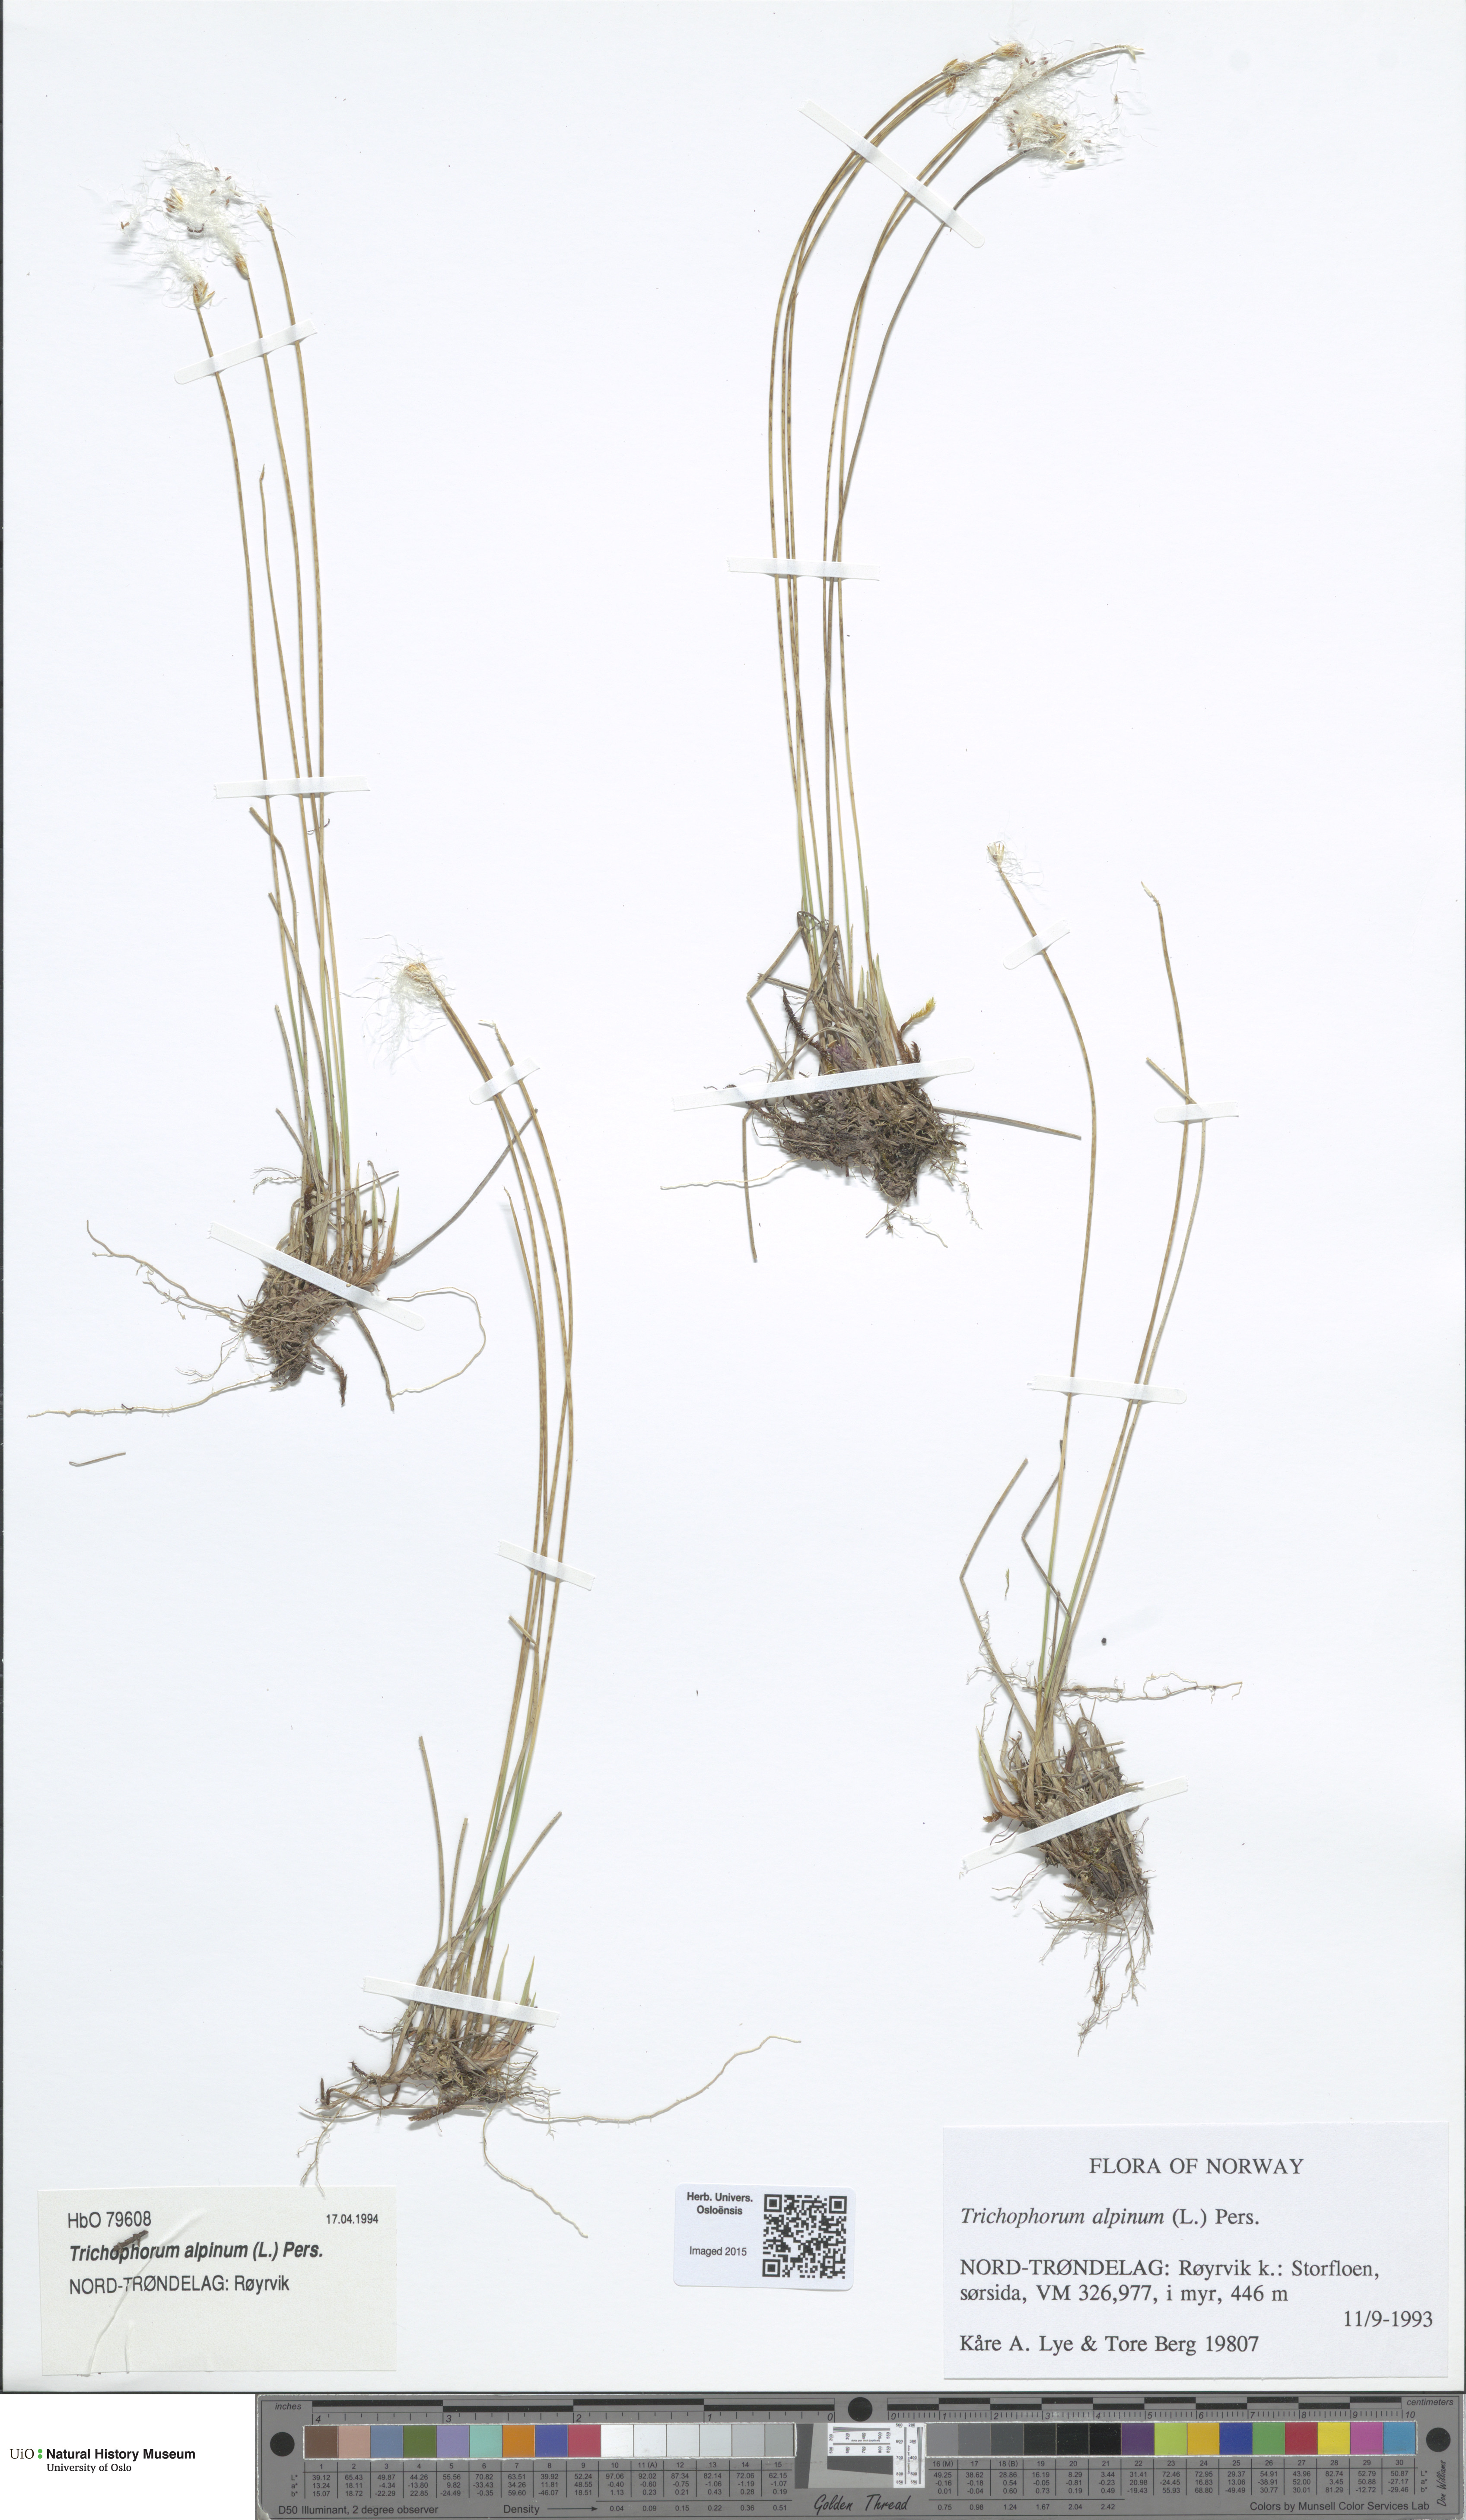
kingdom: Plantae
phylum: Tracheophyta
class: Liliopsida
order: Poales
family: Cyperaceae
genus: Trichophorum
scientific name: Trichophorum alpinum
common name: Alpine bulrush
